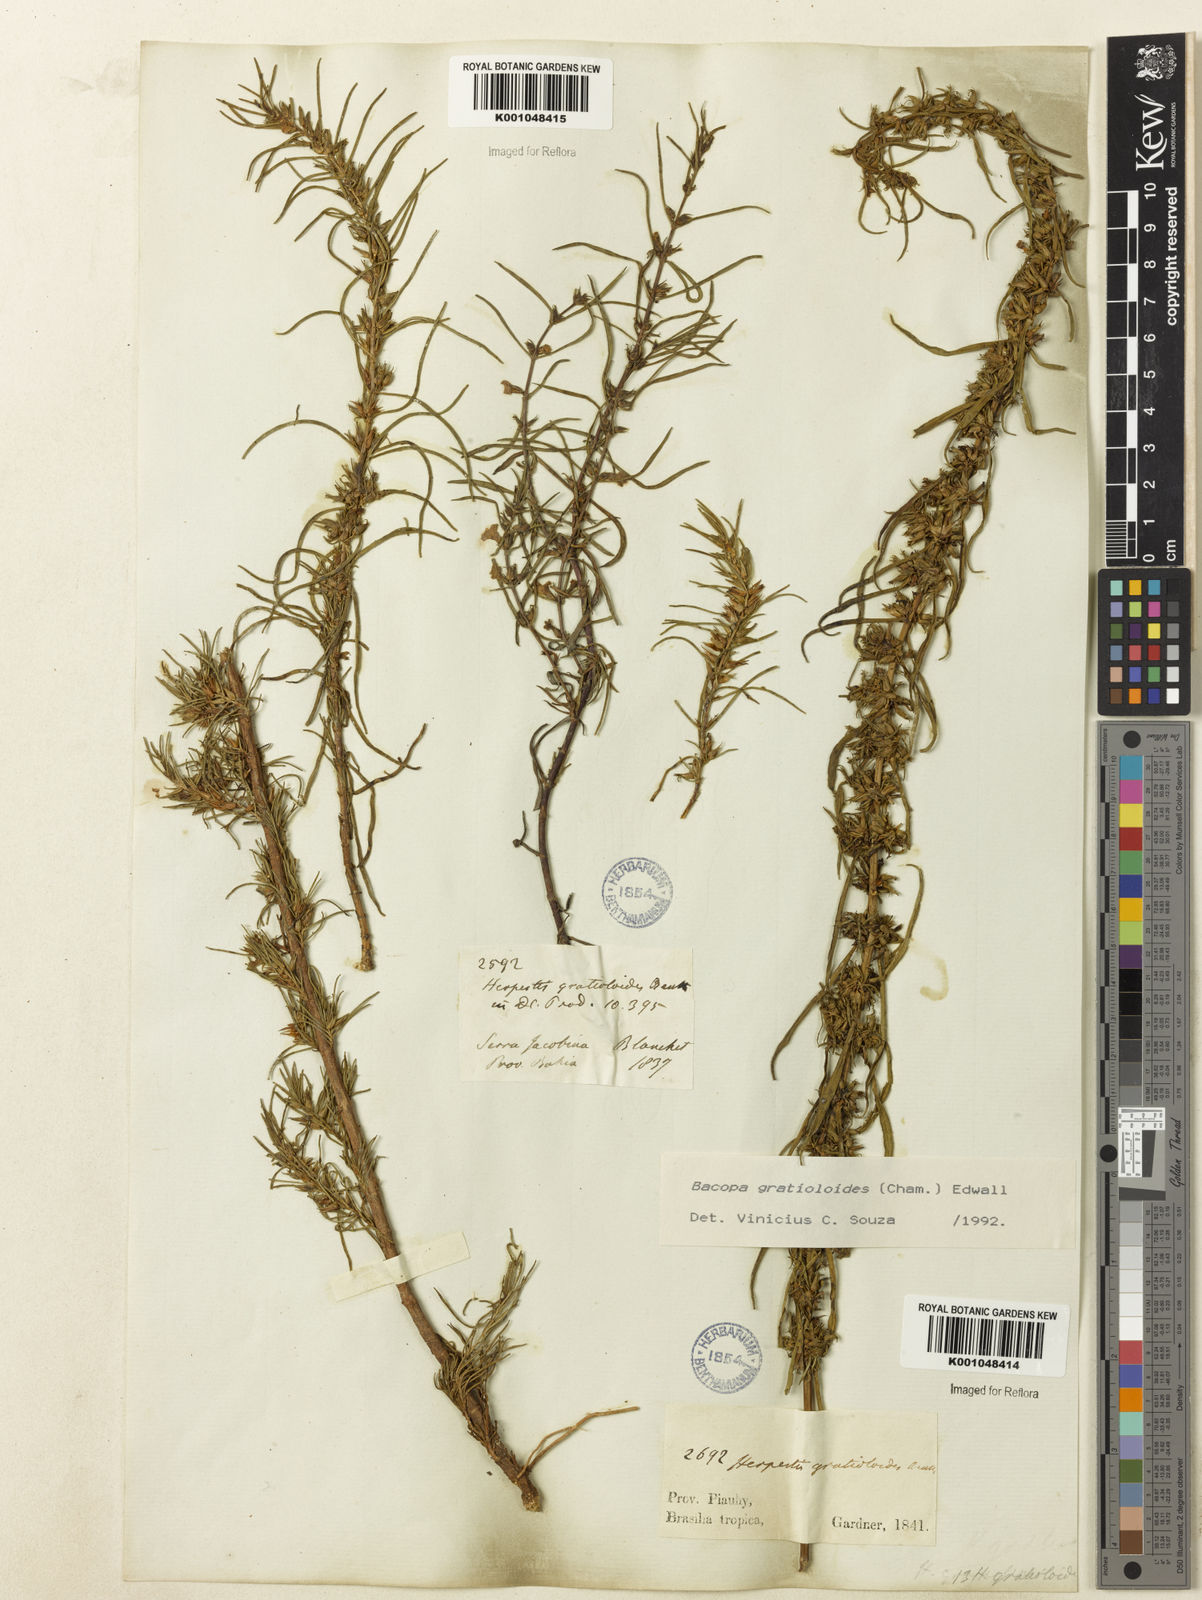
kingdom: Plantae
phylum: Tracheophyta
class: Magnoliopsida
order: Lamiales
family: Plantaginaceae
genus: Bacopa
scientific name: Bacopa
